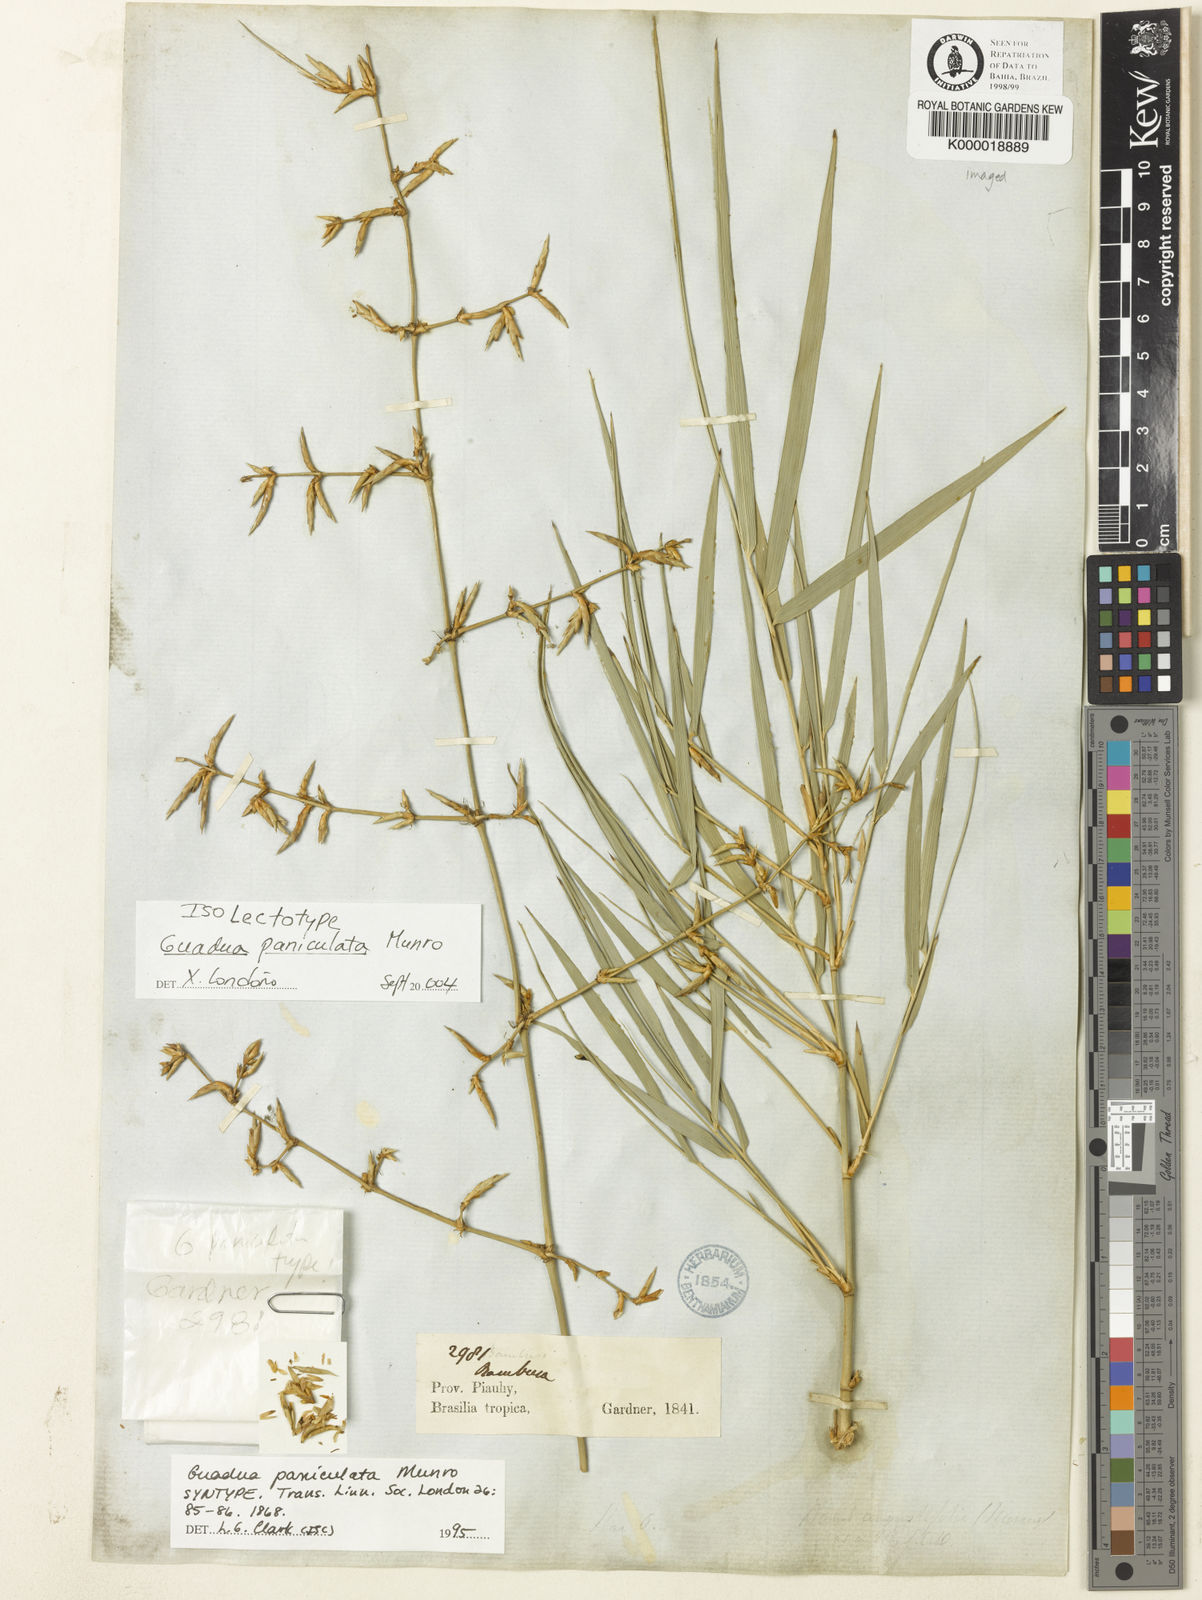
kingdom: Plantae
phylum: Tracheophyta
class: Liliopsida
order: Poales
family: Poaceae
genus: Guadua
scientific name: Guadua paniculata
